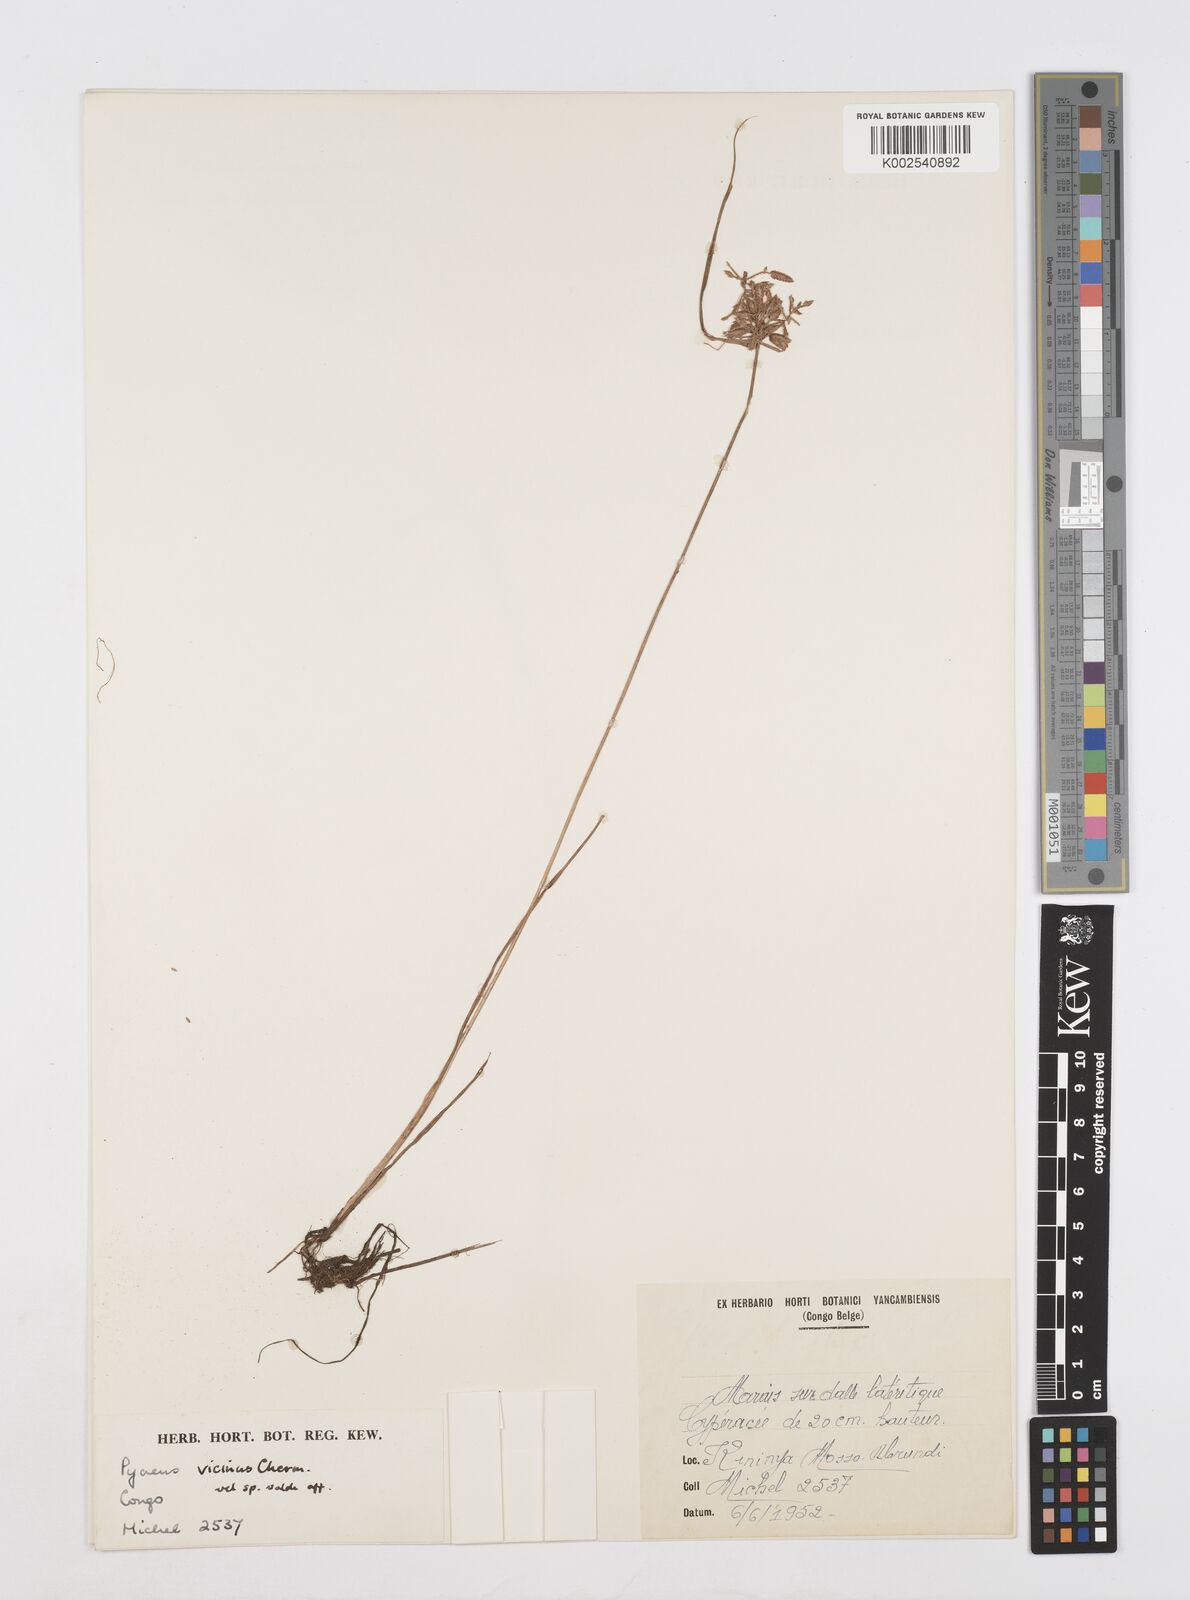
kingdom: Plantae
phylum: Tracheophyta
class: Liliopsida
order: Poales
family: Cyperaceae
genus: Cyperus
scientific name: Cyperus
